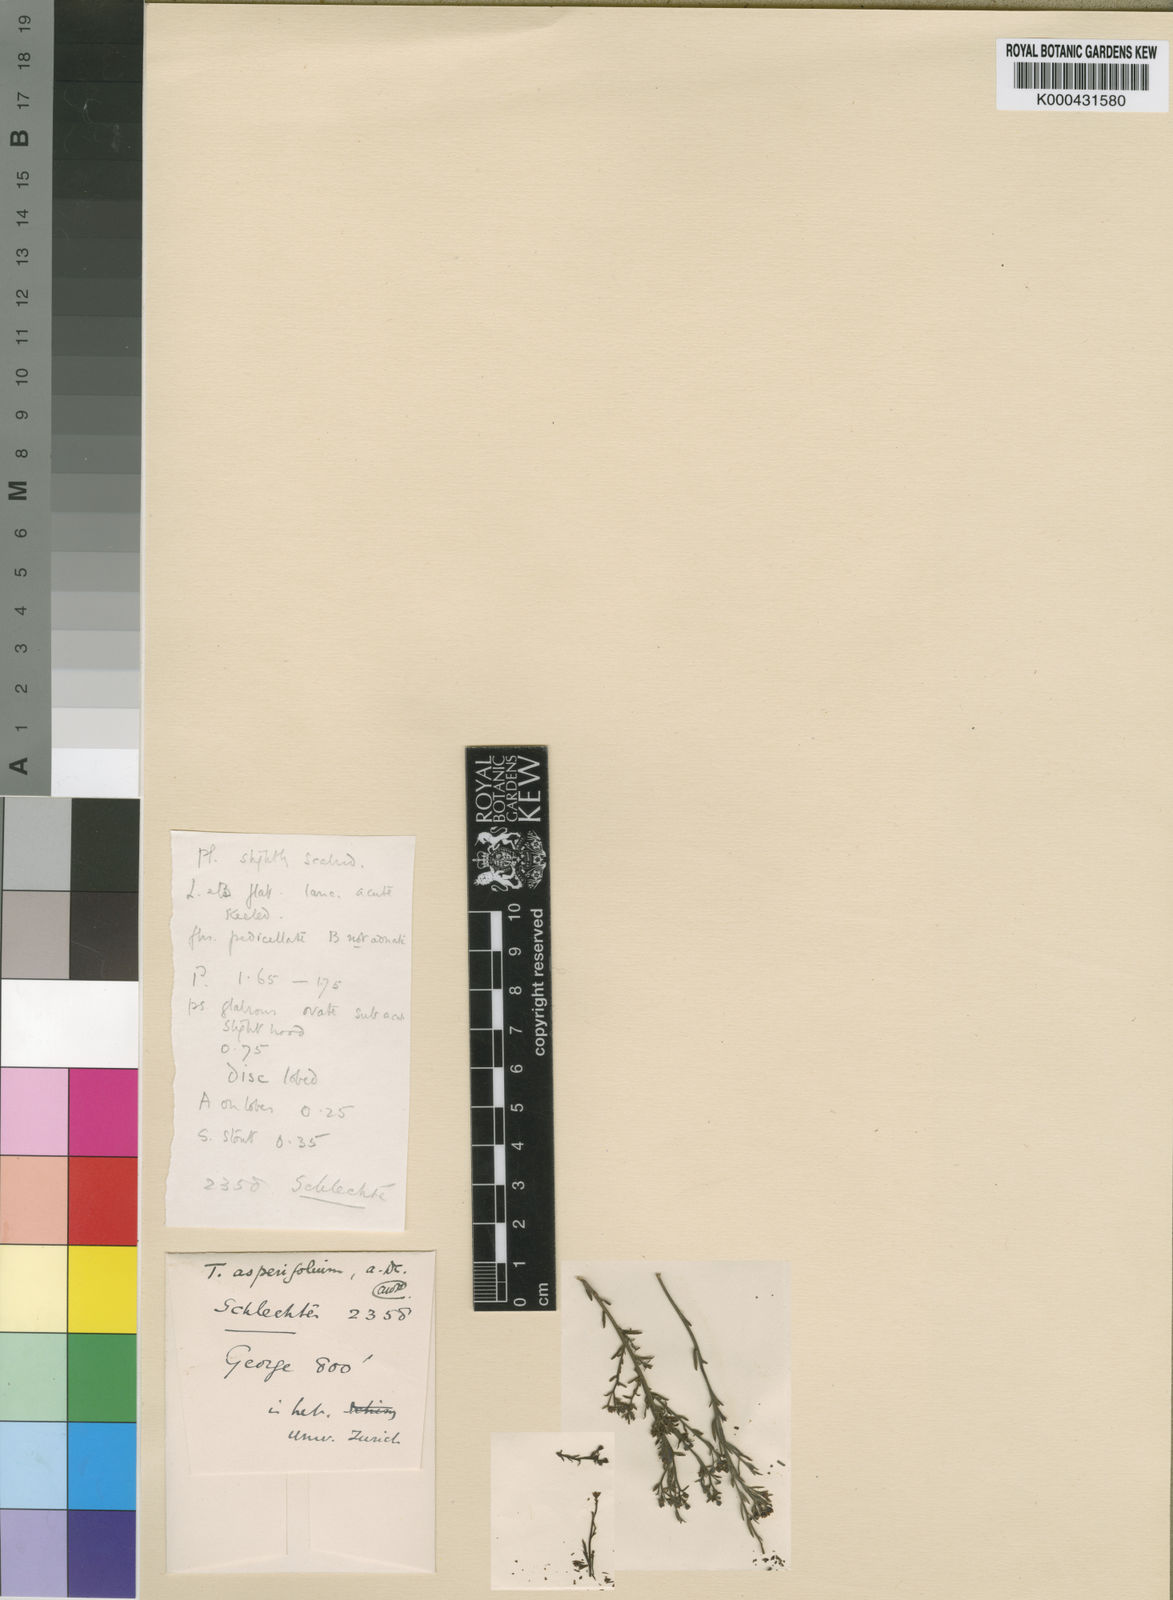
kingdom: Plantae
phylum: Tracheophyta
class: Magnoliopsida
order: Santalales
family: Thesiaceae
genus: Thesium
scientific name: Thesium asperifolium
